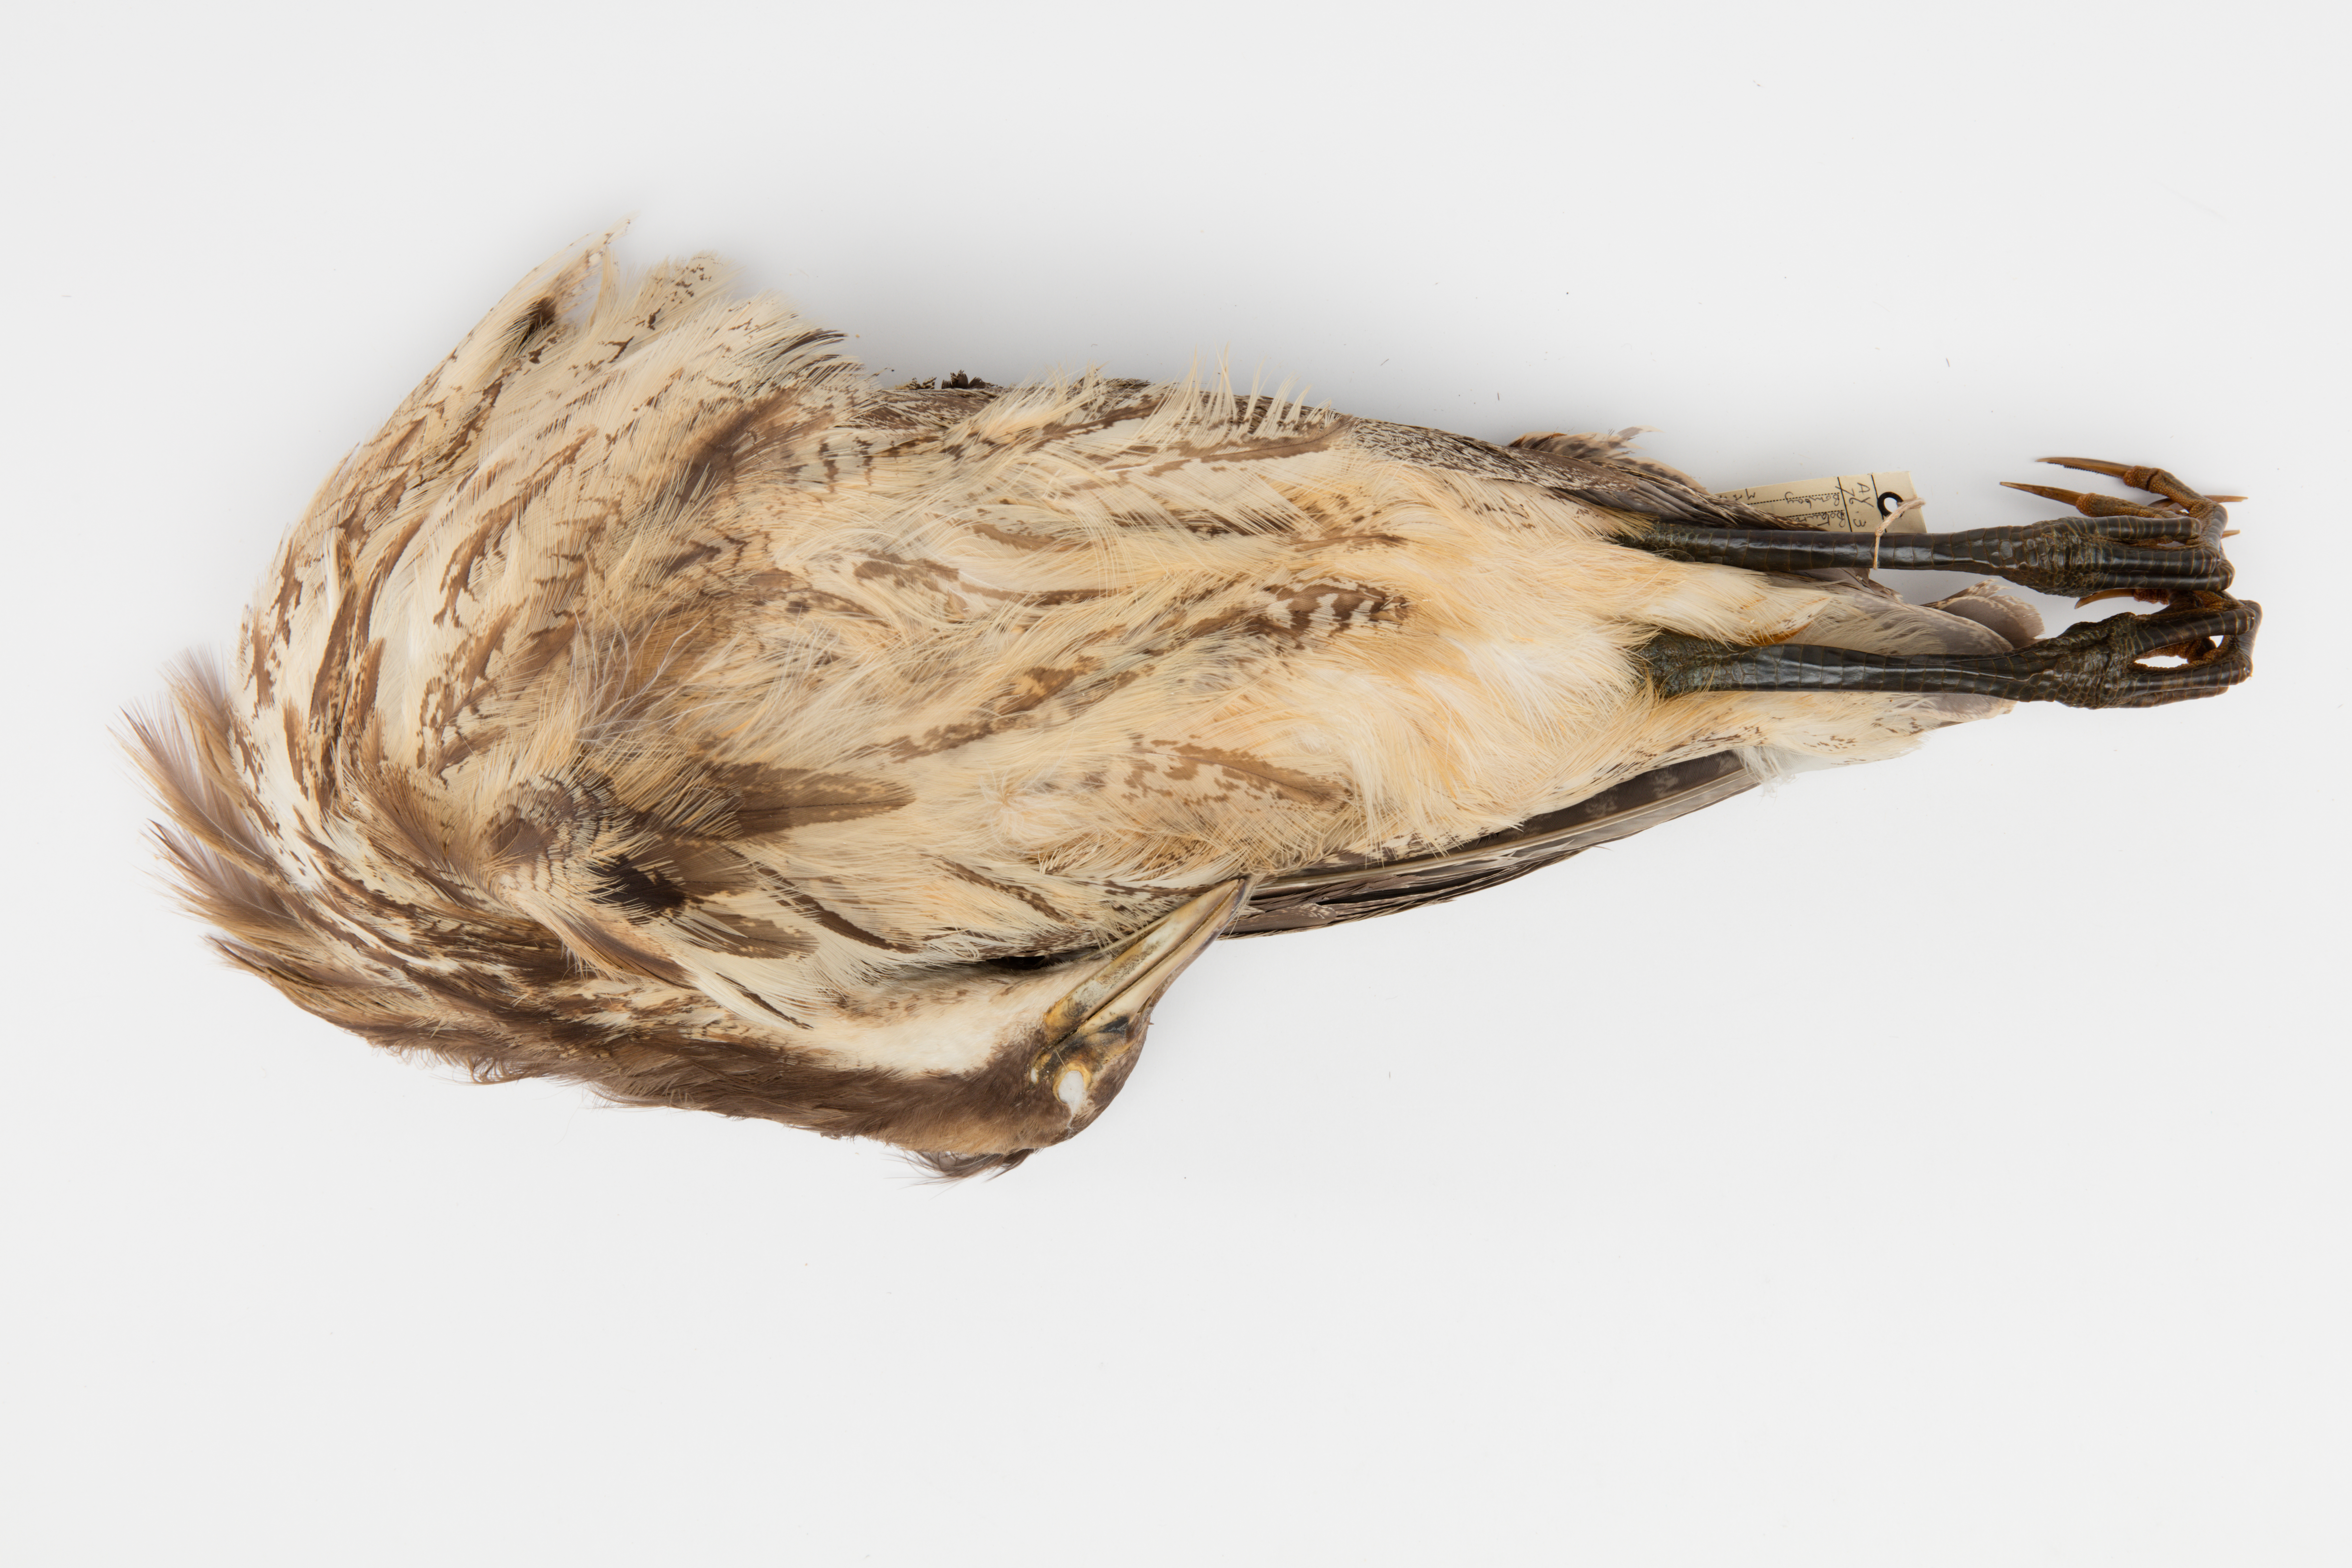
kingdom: Animalia
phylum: Chordata
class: Aves
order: Pelecaniformes
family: Ardeidae
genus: Botaurus
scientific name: Botaurus poiciloptilus
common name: Australasian bittern
